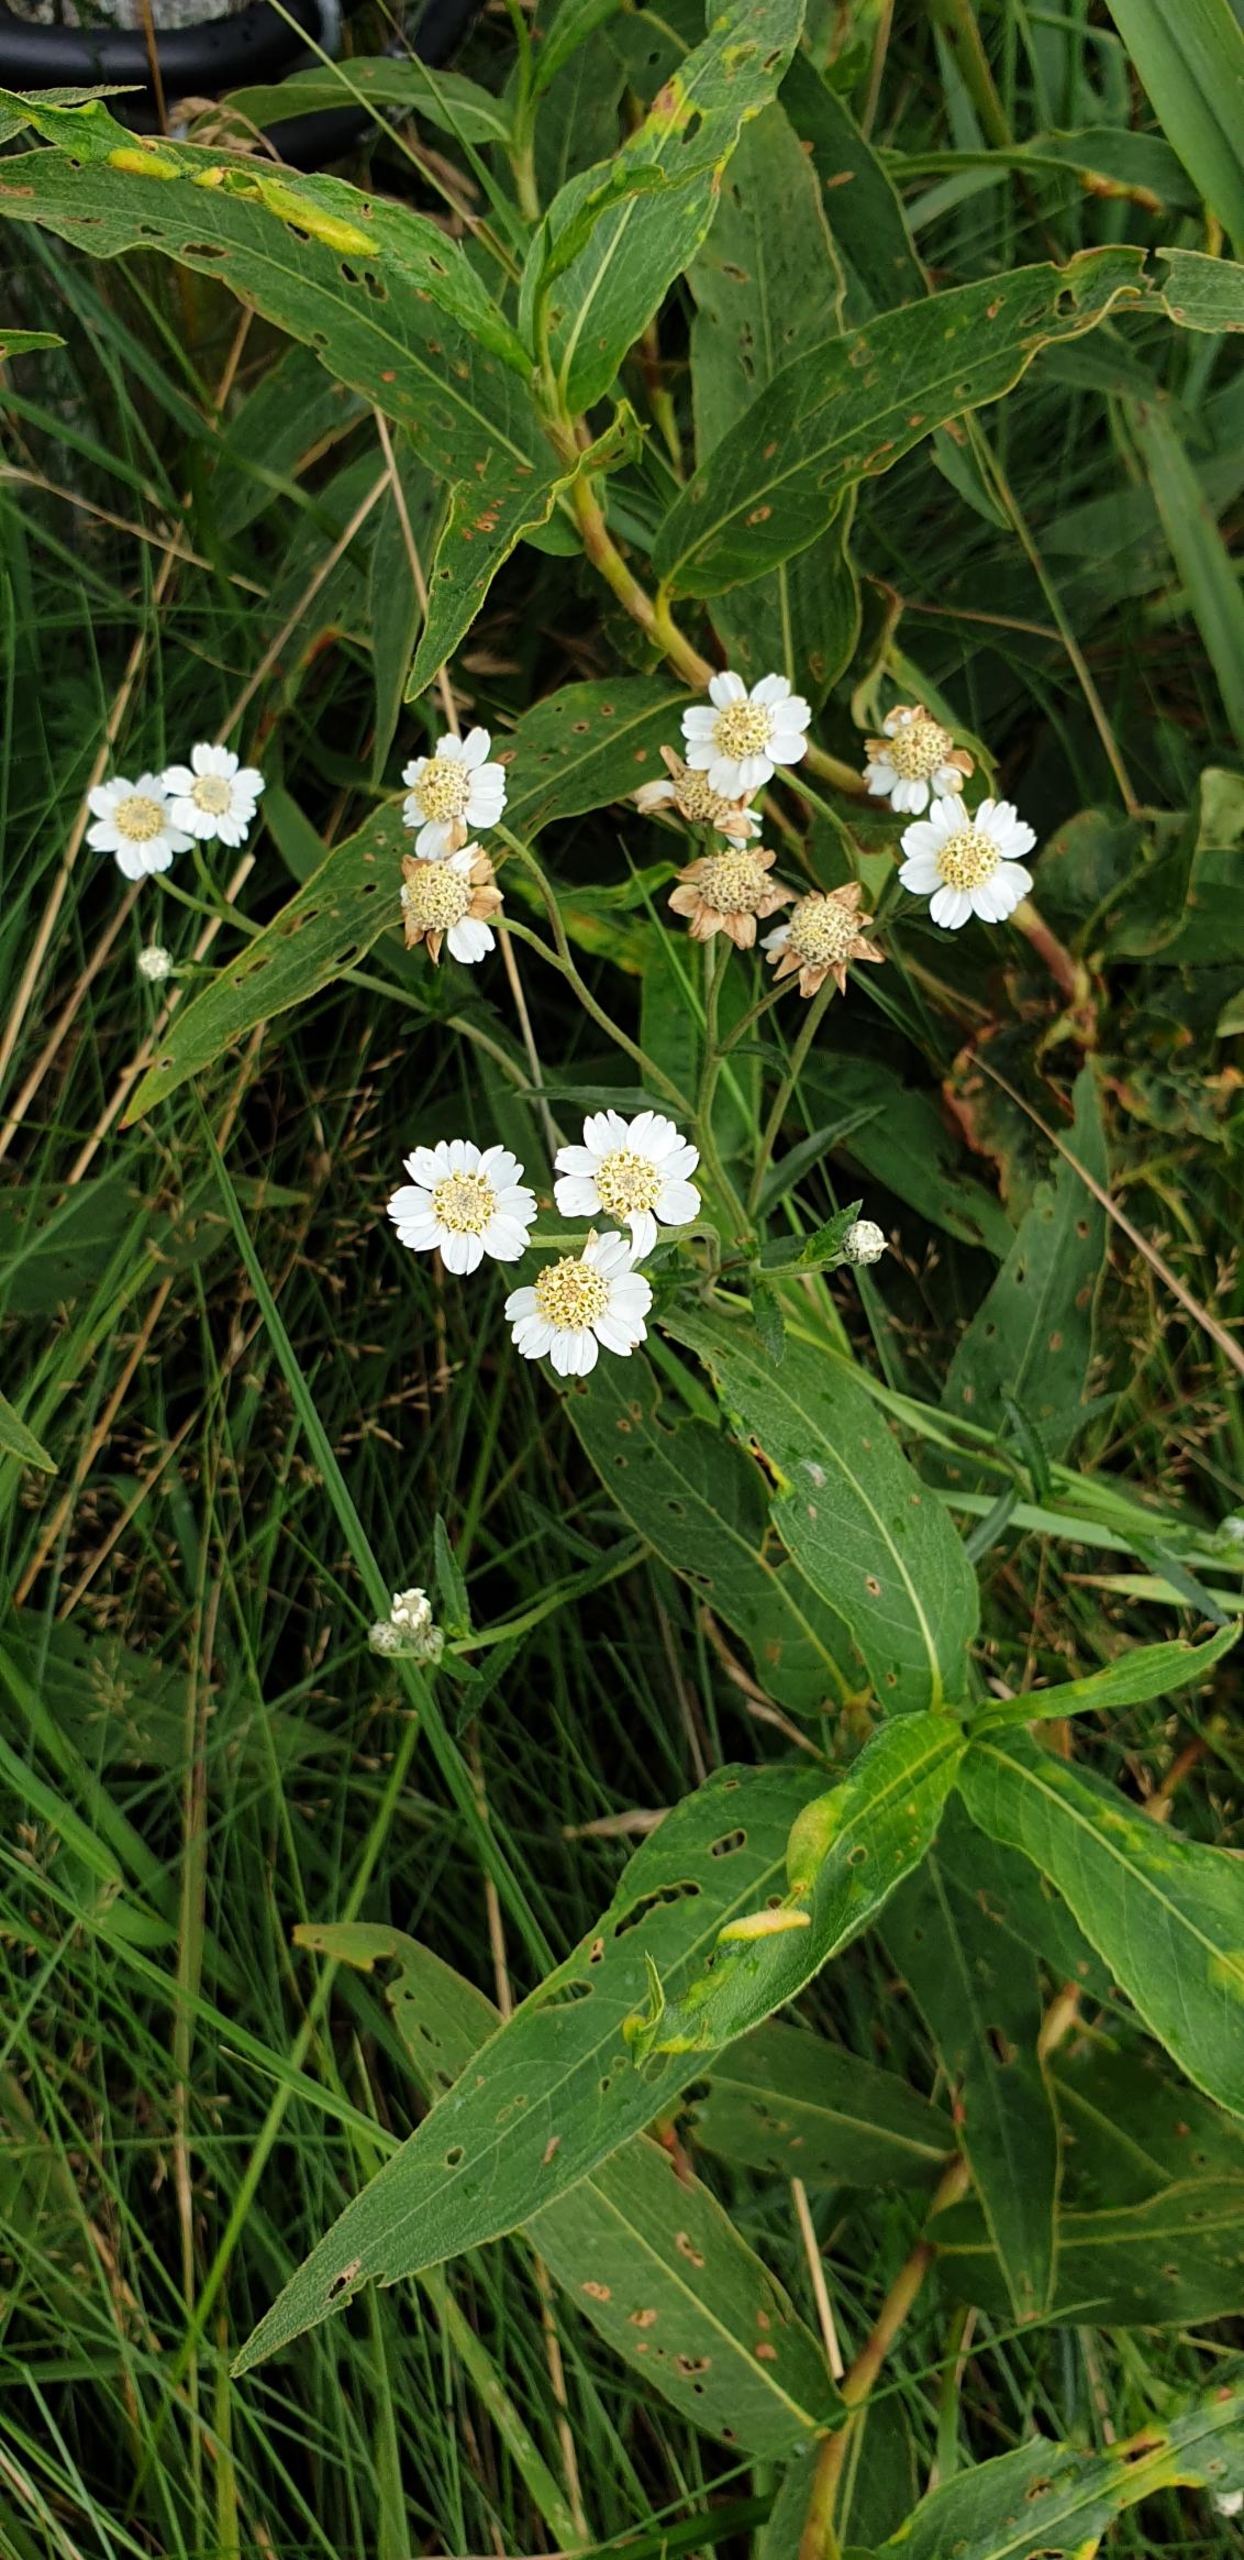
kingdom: Plantae
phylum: Tracheophyta
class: Magnoliopsida
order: Asterales
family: Asteraceae
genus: Achillea
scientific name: Achillea ptarmica
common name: Nyse-røllike
